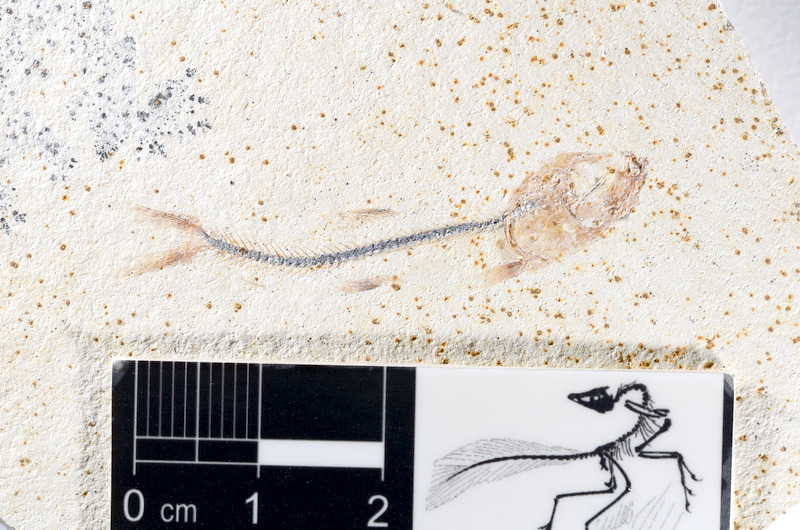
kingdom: Animalia
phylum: Chordata
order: Salmoniformes
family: Orthogonikleithridae
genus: Orthogonikleithrus
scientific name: Orthogonikleithrus hoelli
